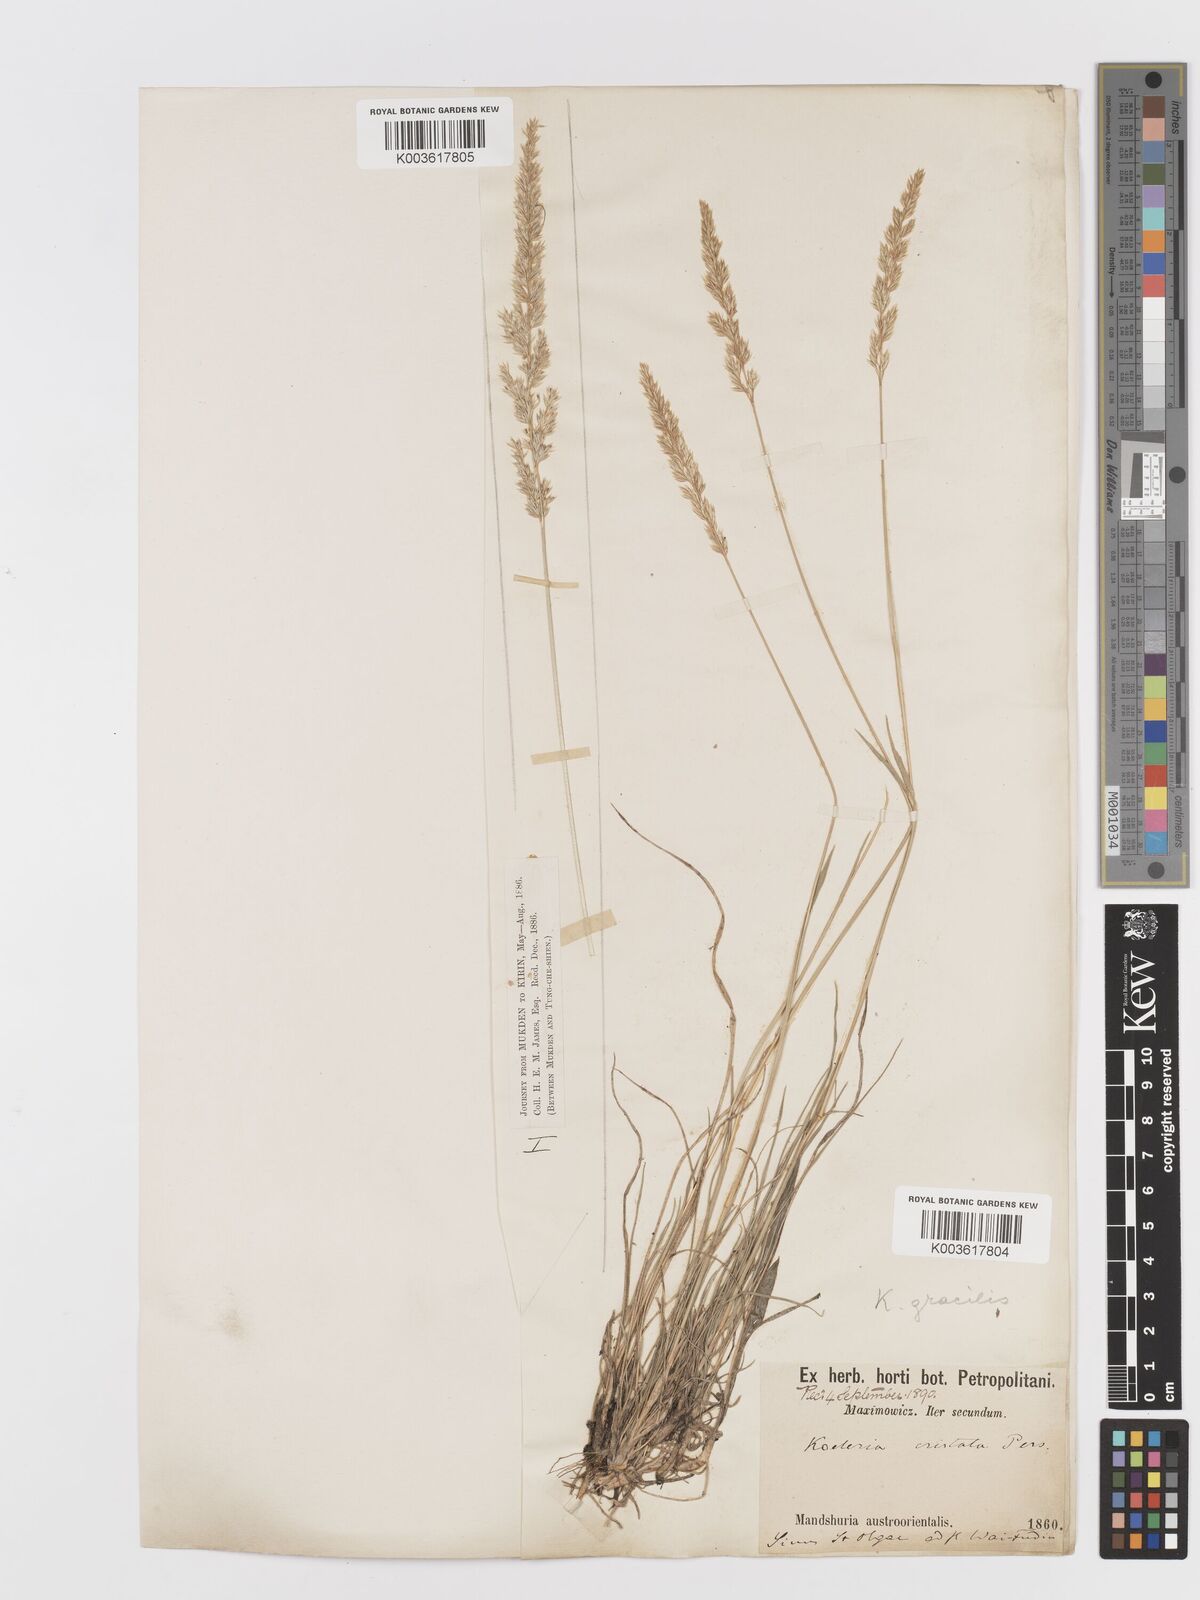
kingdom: Plantae
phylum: Tracheophyta
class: Liliopsida
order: Poales
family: Poaceae
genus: Koeleria
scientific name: Koeleria macrantha
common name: Crested hair-grass
